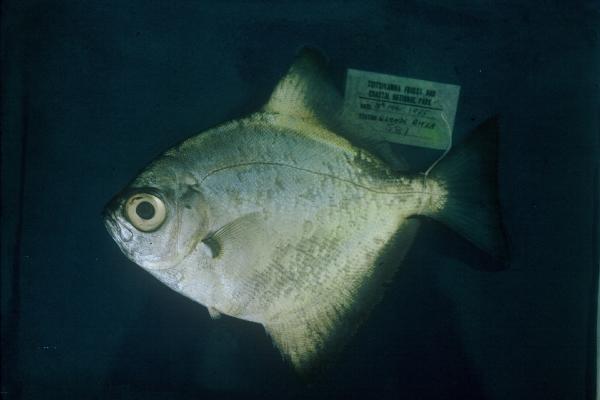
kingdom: Animalia
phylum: Chordata
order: Perciformes
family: Monodactylidae
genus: Monodactylus
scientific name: Monodactylus falciformis
